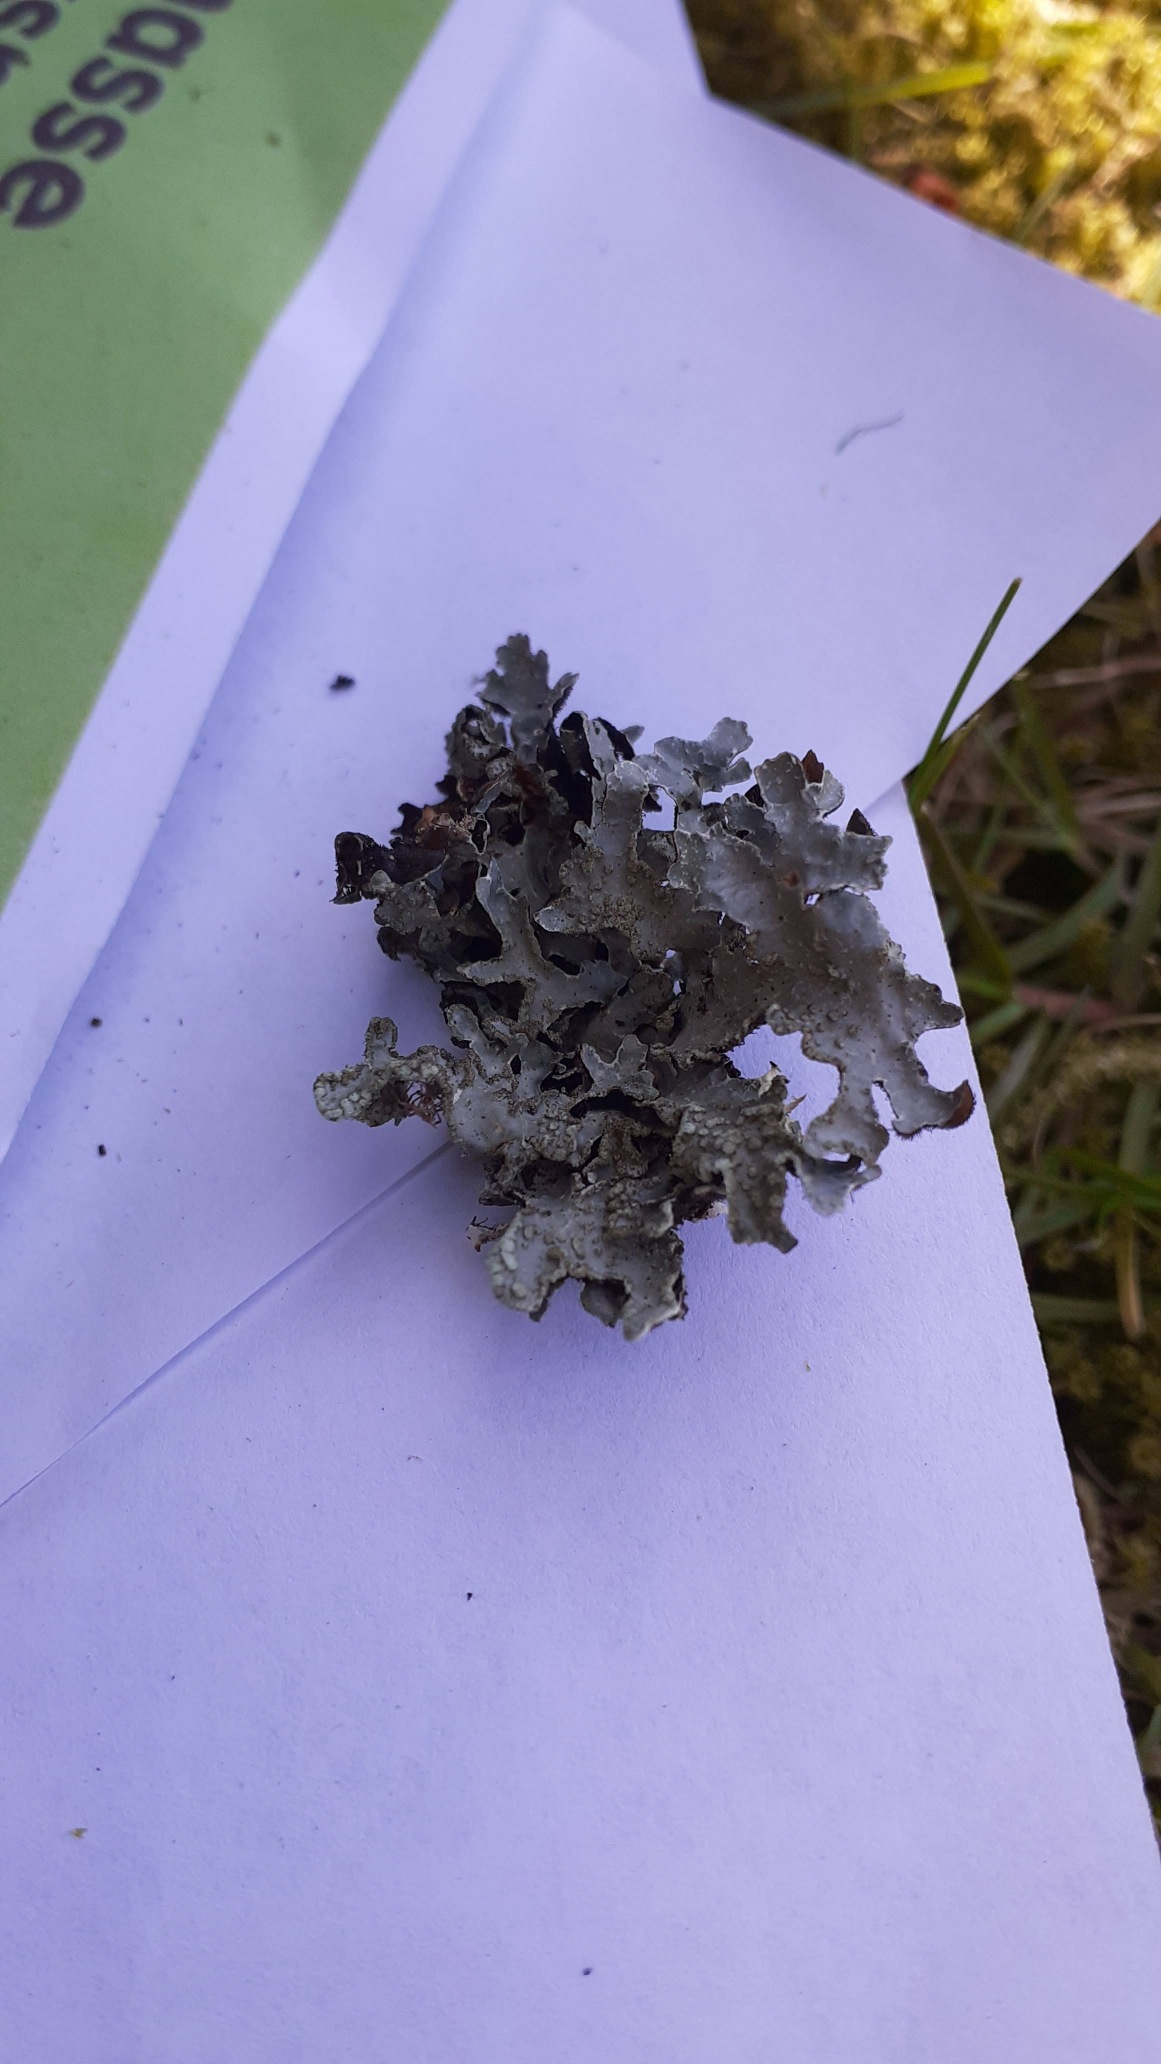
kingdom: Fungi
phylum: Ascomycota
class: Lecanoromycetes
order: Lecanorales
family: Parmeliaceae
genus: Parmelia
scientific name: Parmelia sulcata
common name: Rynket skållav
